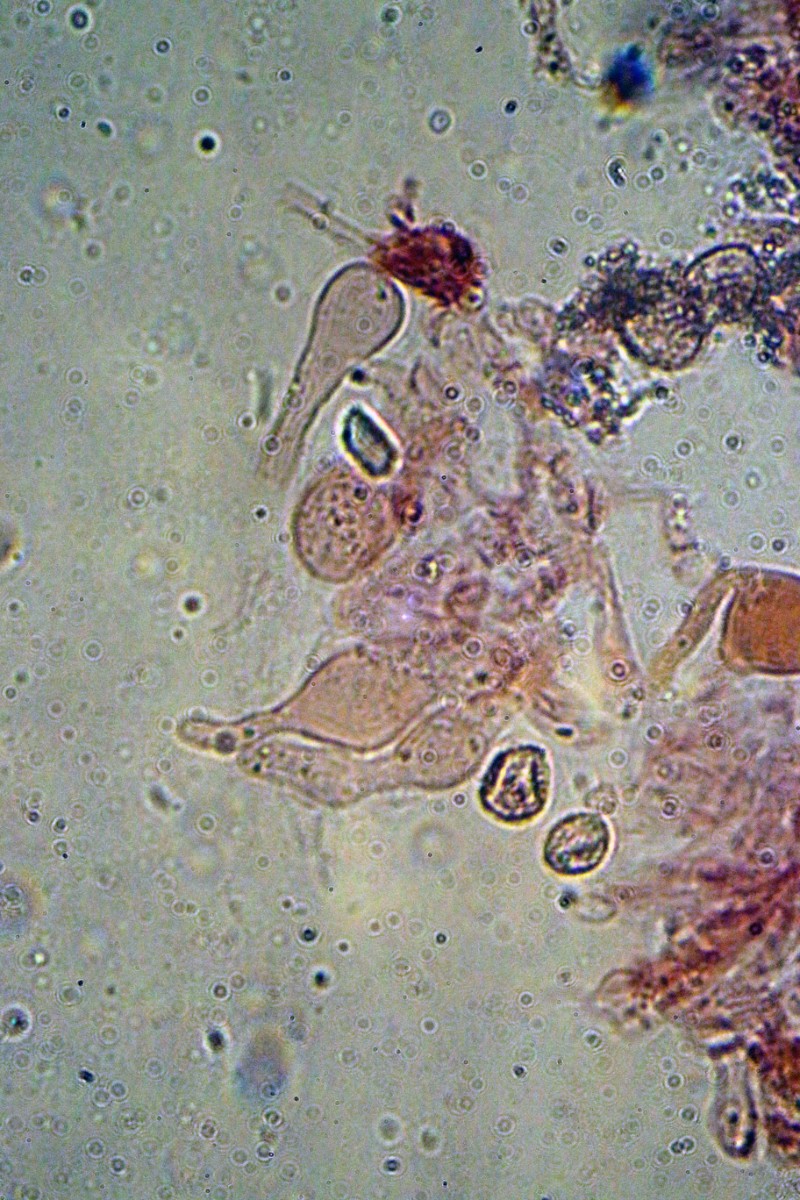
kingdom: Fungi
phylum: Basidiomycota
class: Agaricomycetes
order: Agaricales
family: Crepidotaceae
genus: Crepidotus
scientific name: Crepidotus
